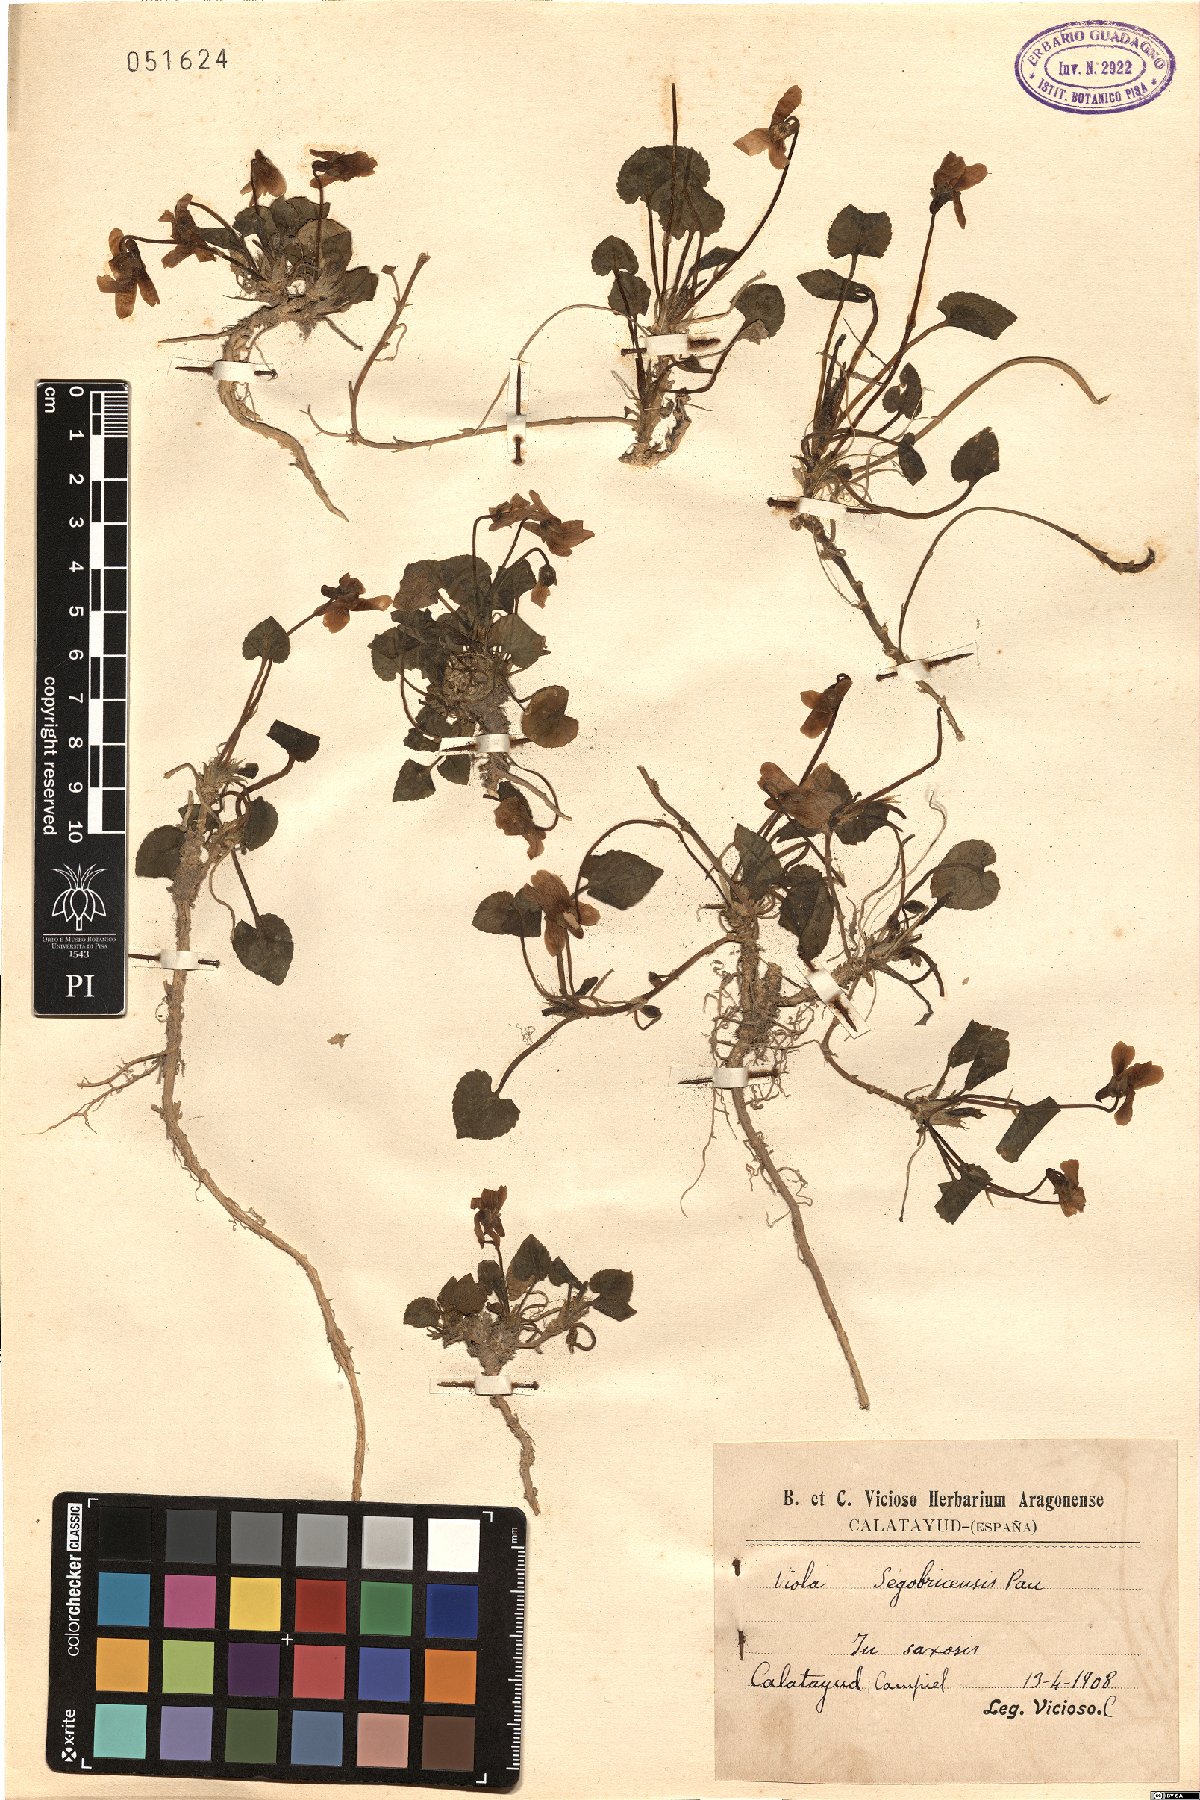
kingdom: Plantae
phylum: Tracheophyta
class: Magnoliopsida
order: Malpighiales
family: Violaceae
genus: Viola
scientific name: Viola suavis
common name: Russian violet
